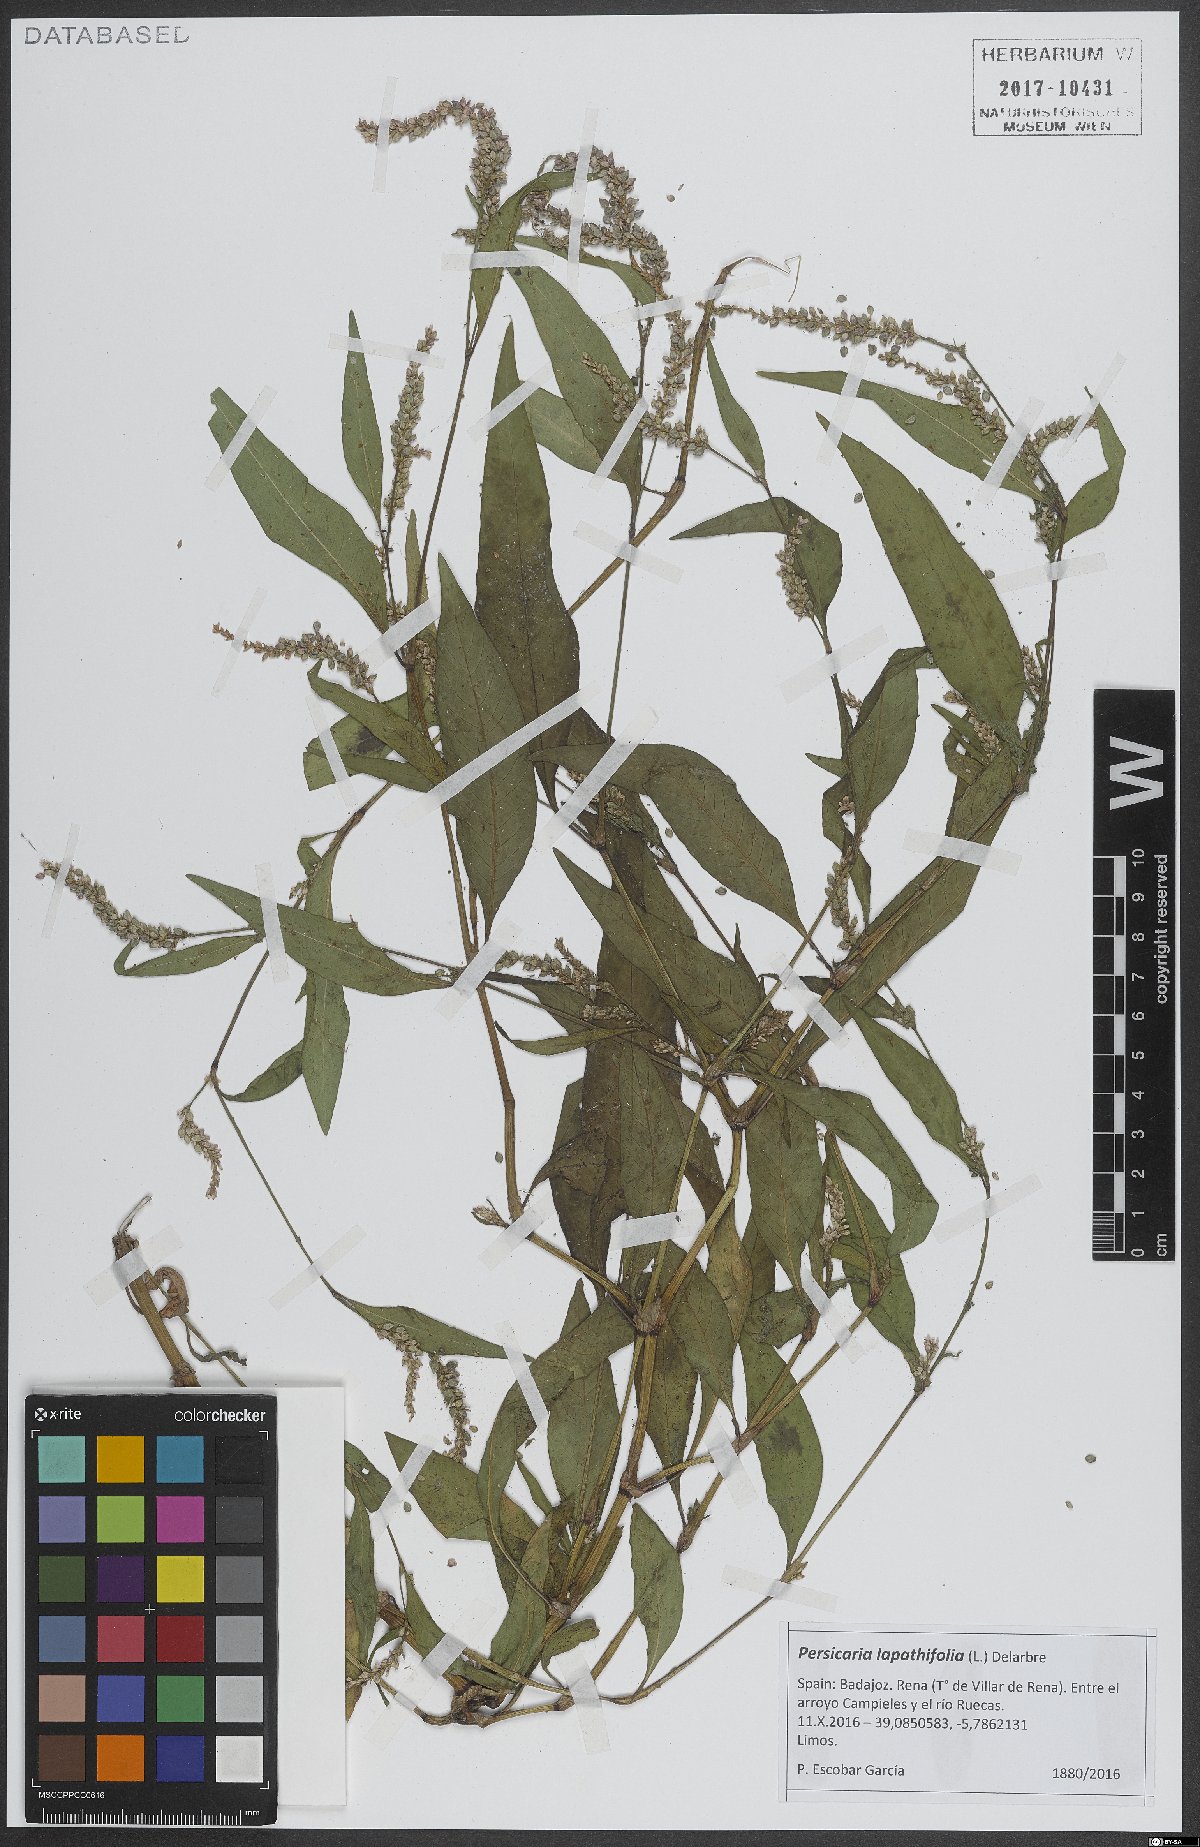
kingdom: Plantae
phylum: Tracheophyta
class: Magnoliopsida
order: Caryophyllales
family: Polygonaceae
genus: Persicaria
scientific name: Persicaria lapathifolia
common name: Curlytop knotweed
